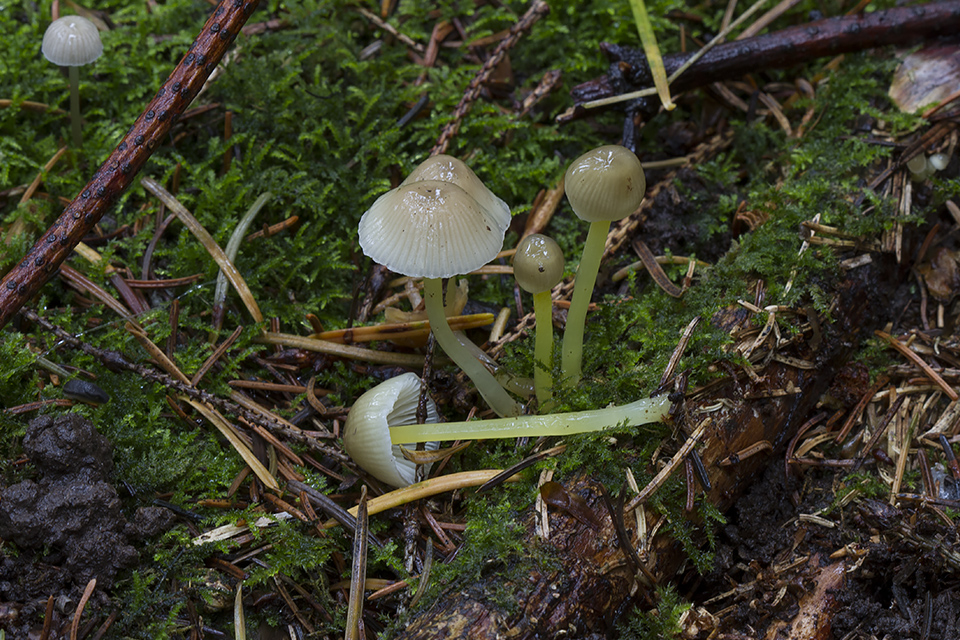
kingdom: Fungi
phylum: Basidiomycota
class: Agaricomycetes
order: Agaricales
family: Mycenaceae
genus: Mycena
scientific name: Mycena epipterygia
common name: gulstokket huesvamp
